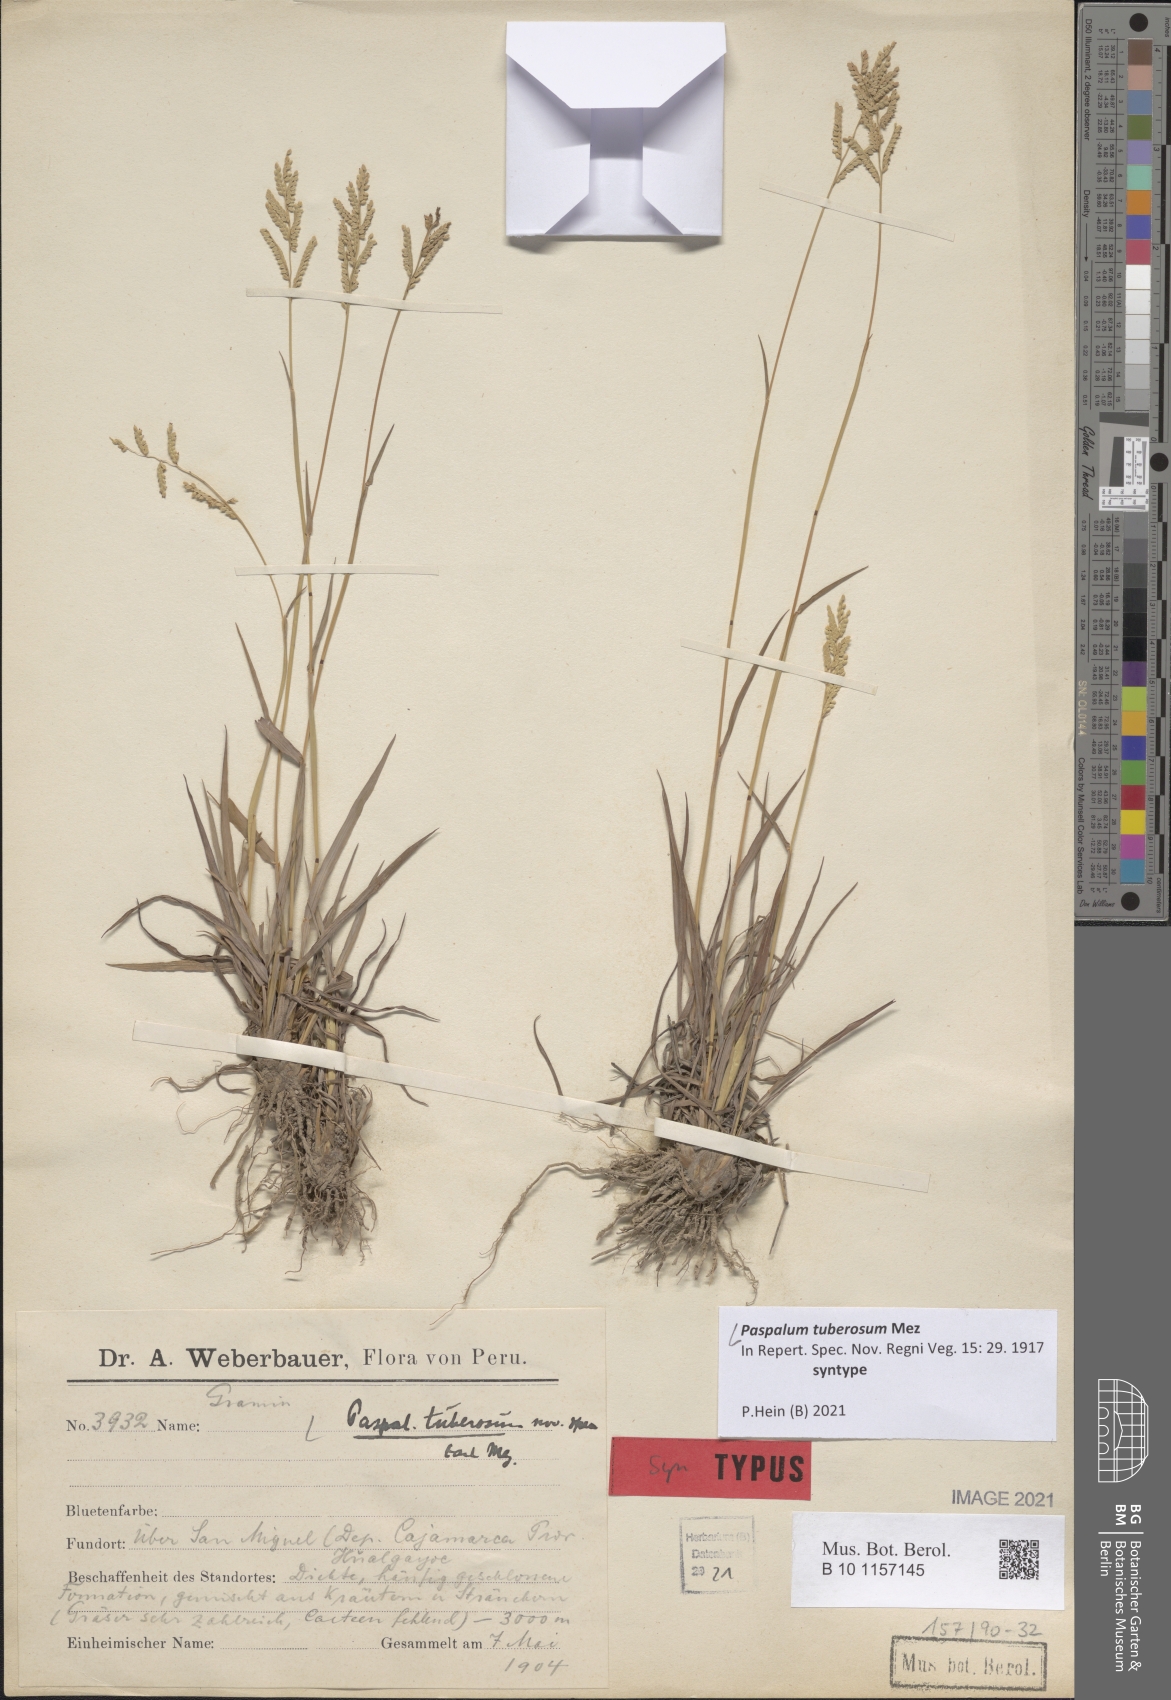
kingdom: Plantae
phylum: Tracheophyta
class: Liliopsida
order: Poales
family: Poaceae
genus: Paspalum
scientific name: Paspalum tuberosum
